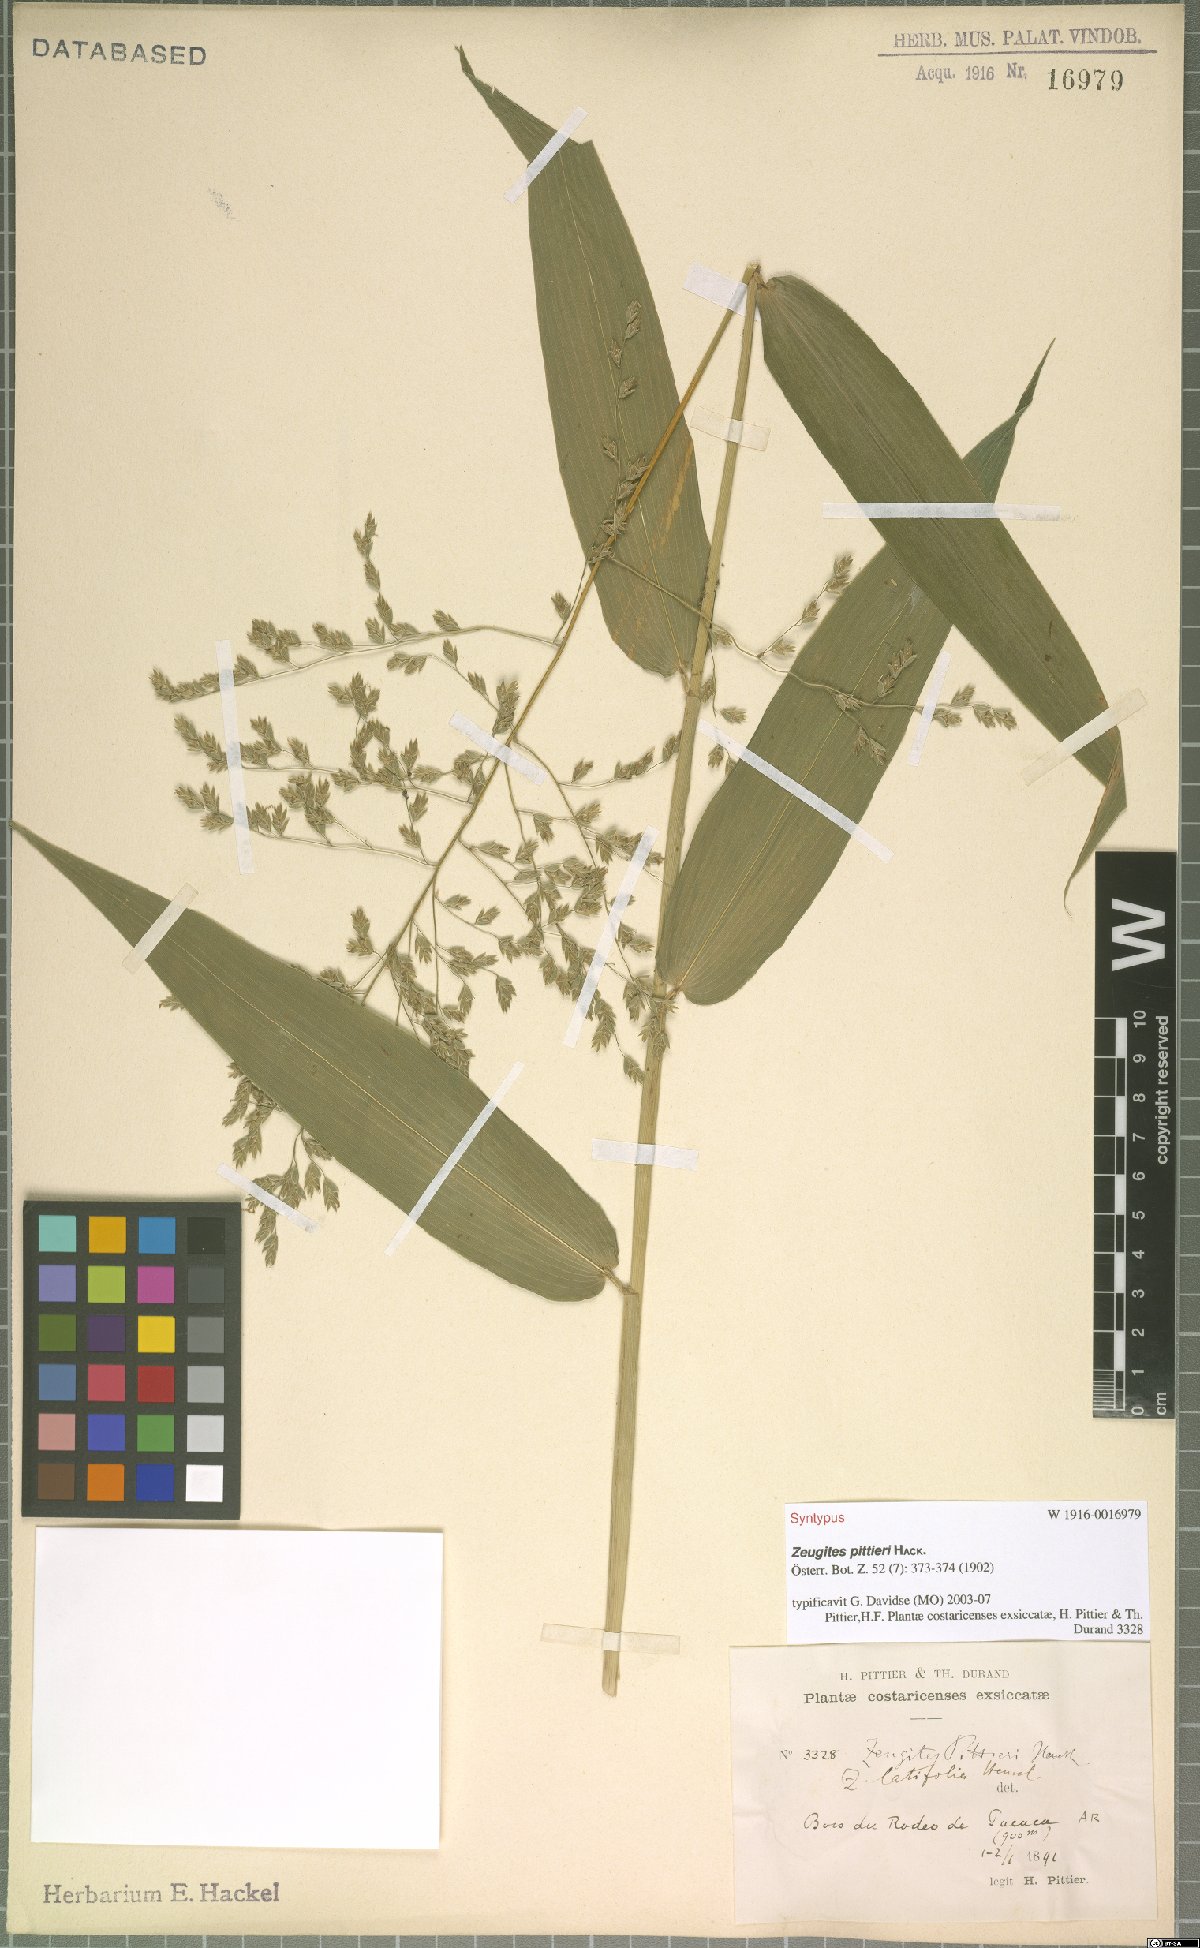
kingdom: Plantae
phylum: Tracheophyta
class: Liliopsida
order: Poales
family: Poaceae
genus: Zeugites
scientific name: Zeugites pittieri
